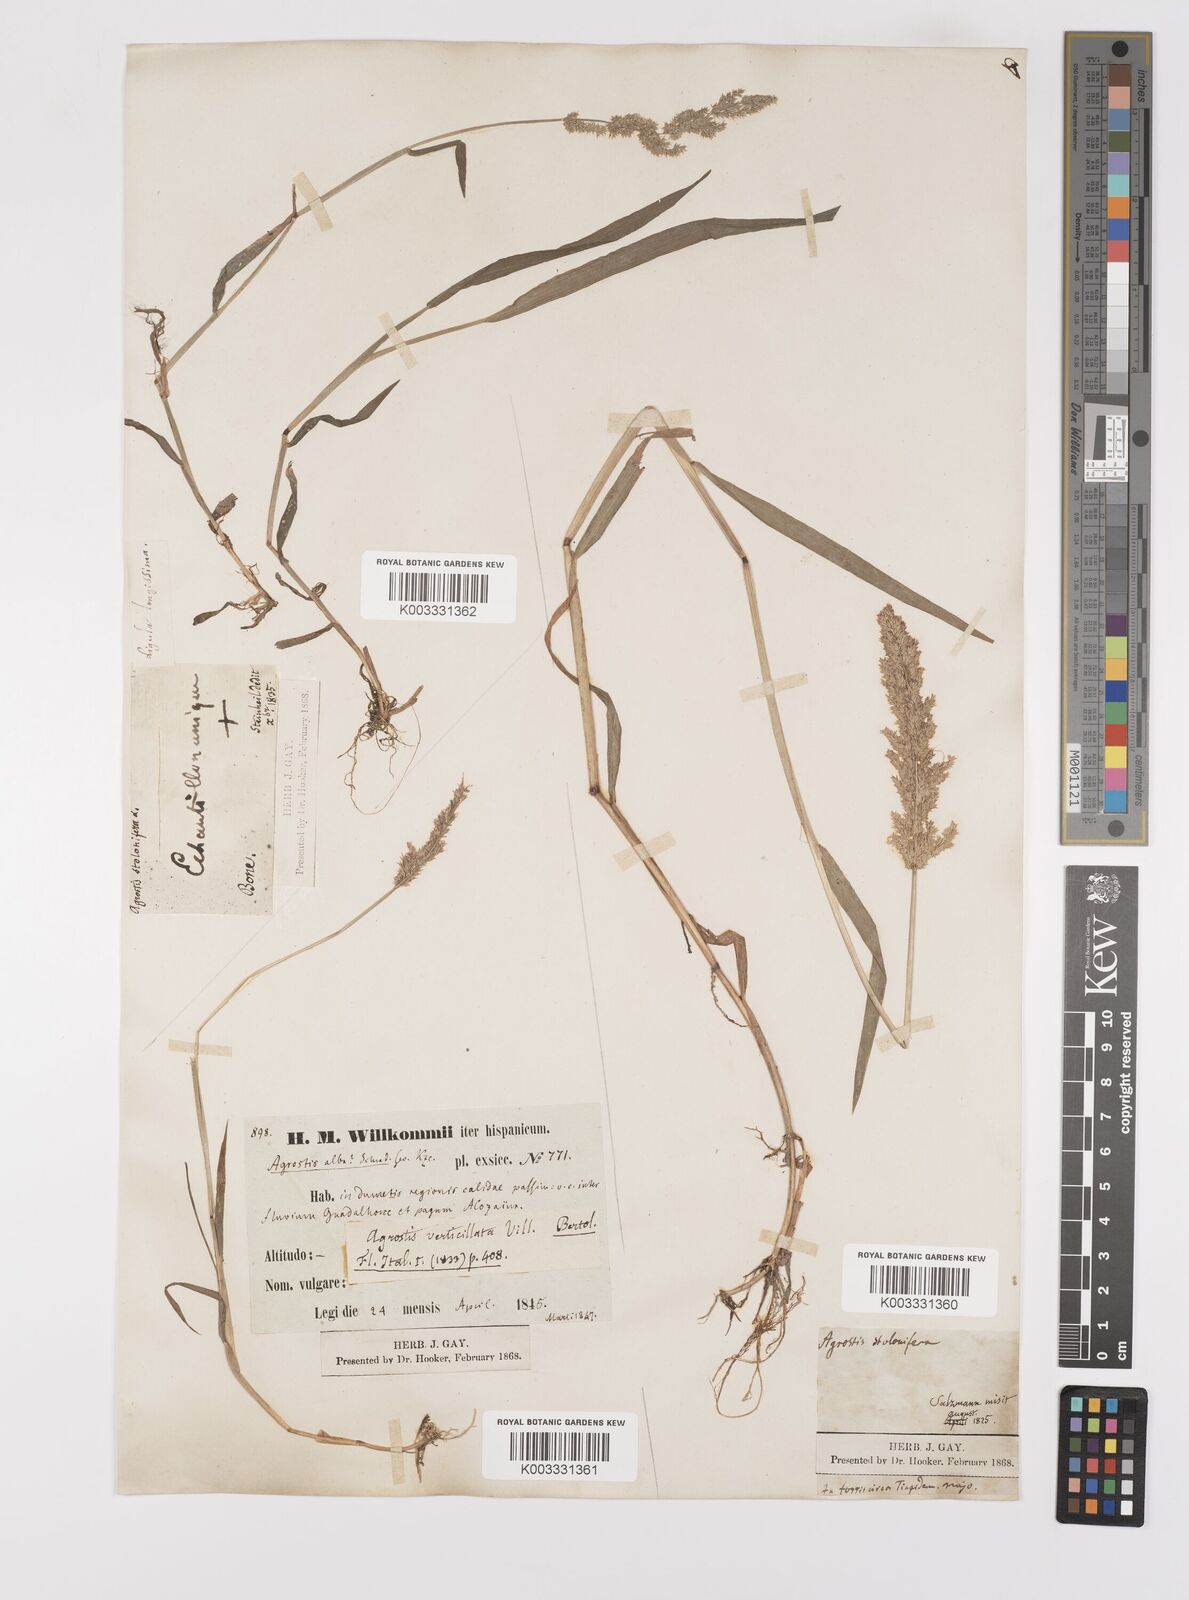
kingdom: Plantae
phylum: Tracheophyta
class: Liliopsida
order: Poales
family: Poaceae
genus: Polypogon
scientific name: Polypogon viridis
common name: Water bent
